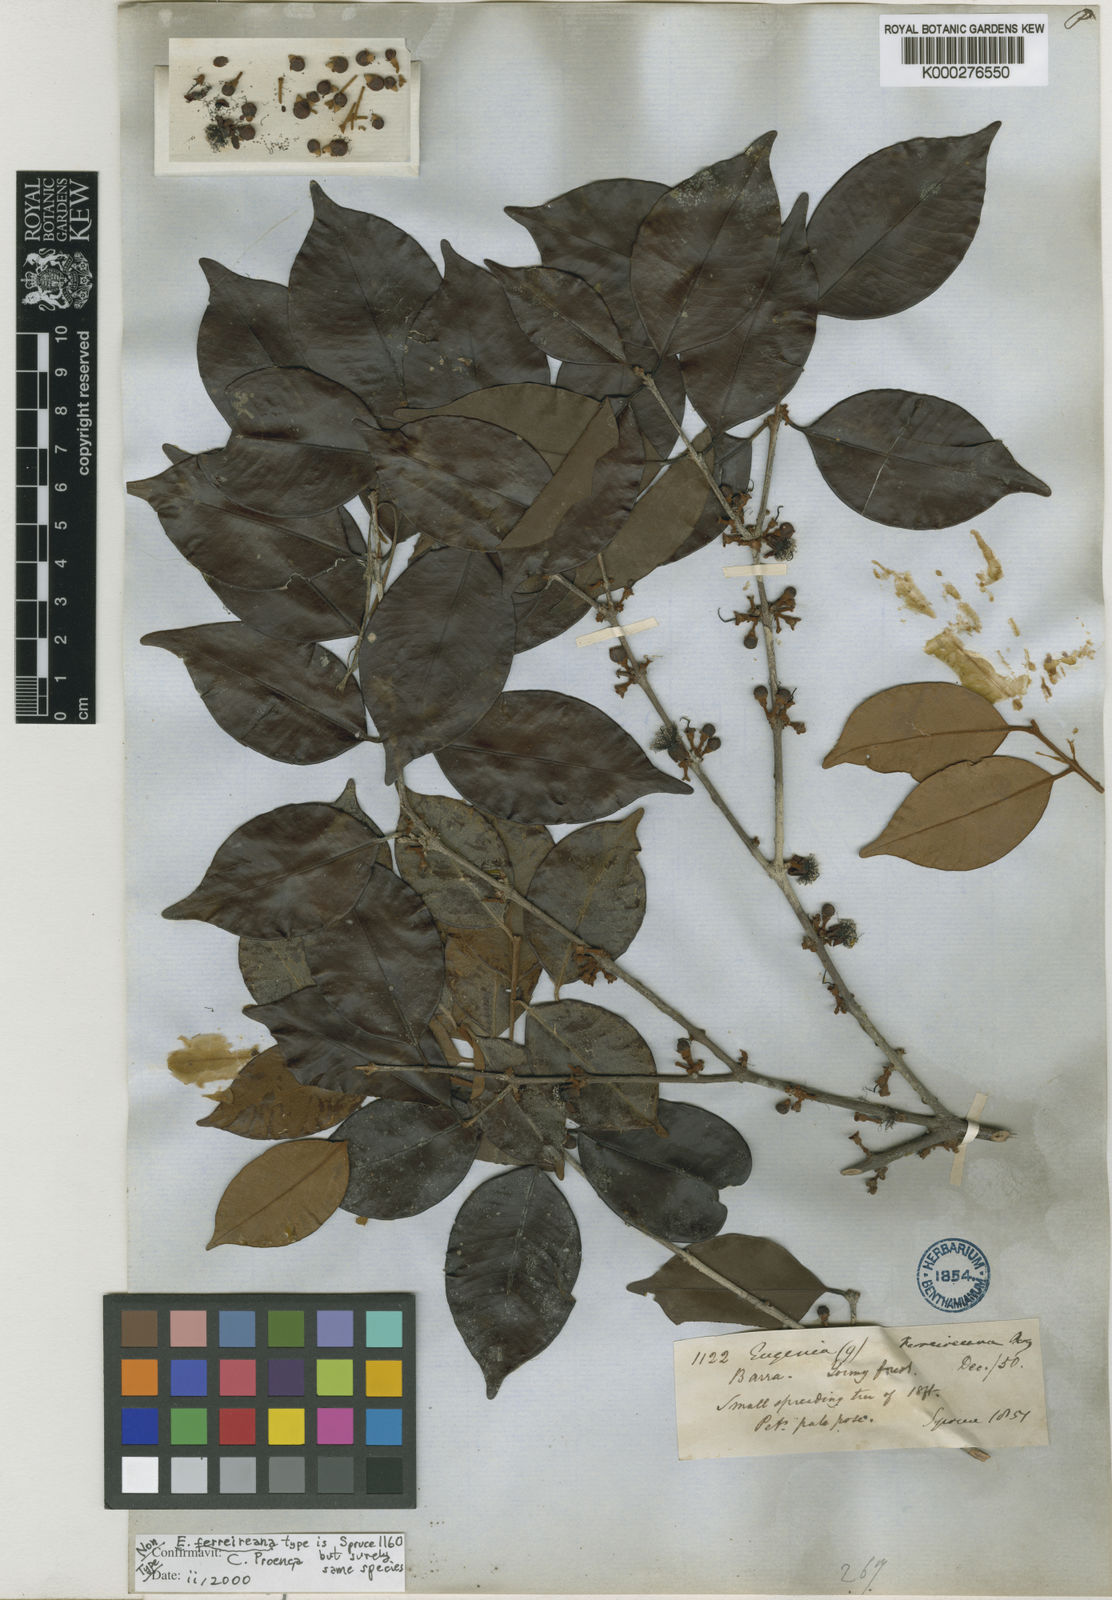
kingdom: Plantae
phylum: Tracheophyta
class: Magnoliopsida
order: Myrtales
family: Myrtaceae
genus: Eugenia
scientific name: Eugenia ferreiraeana
